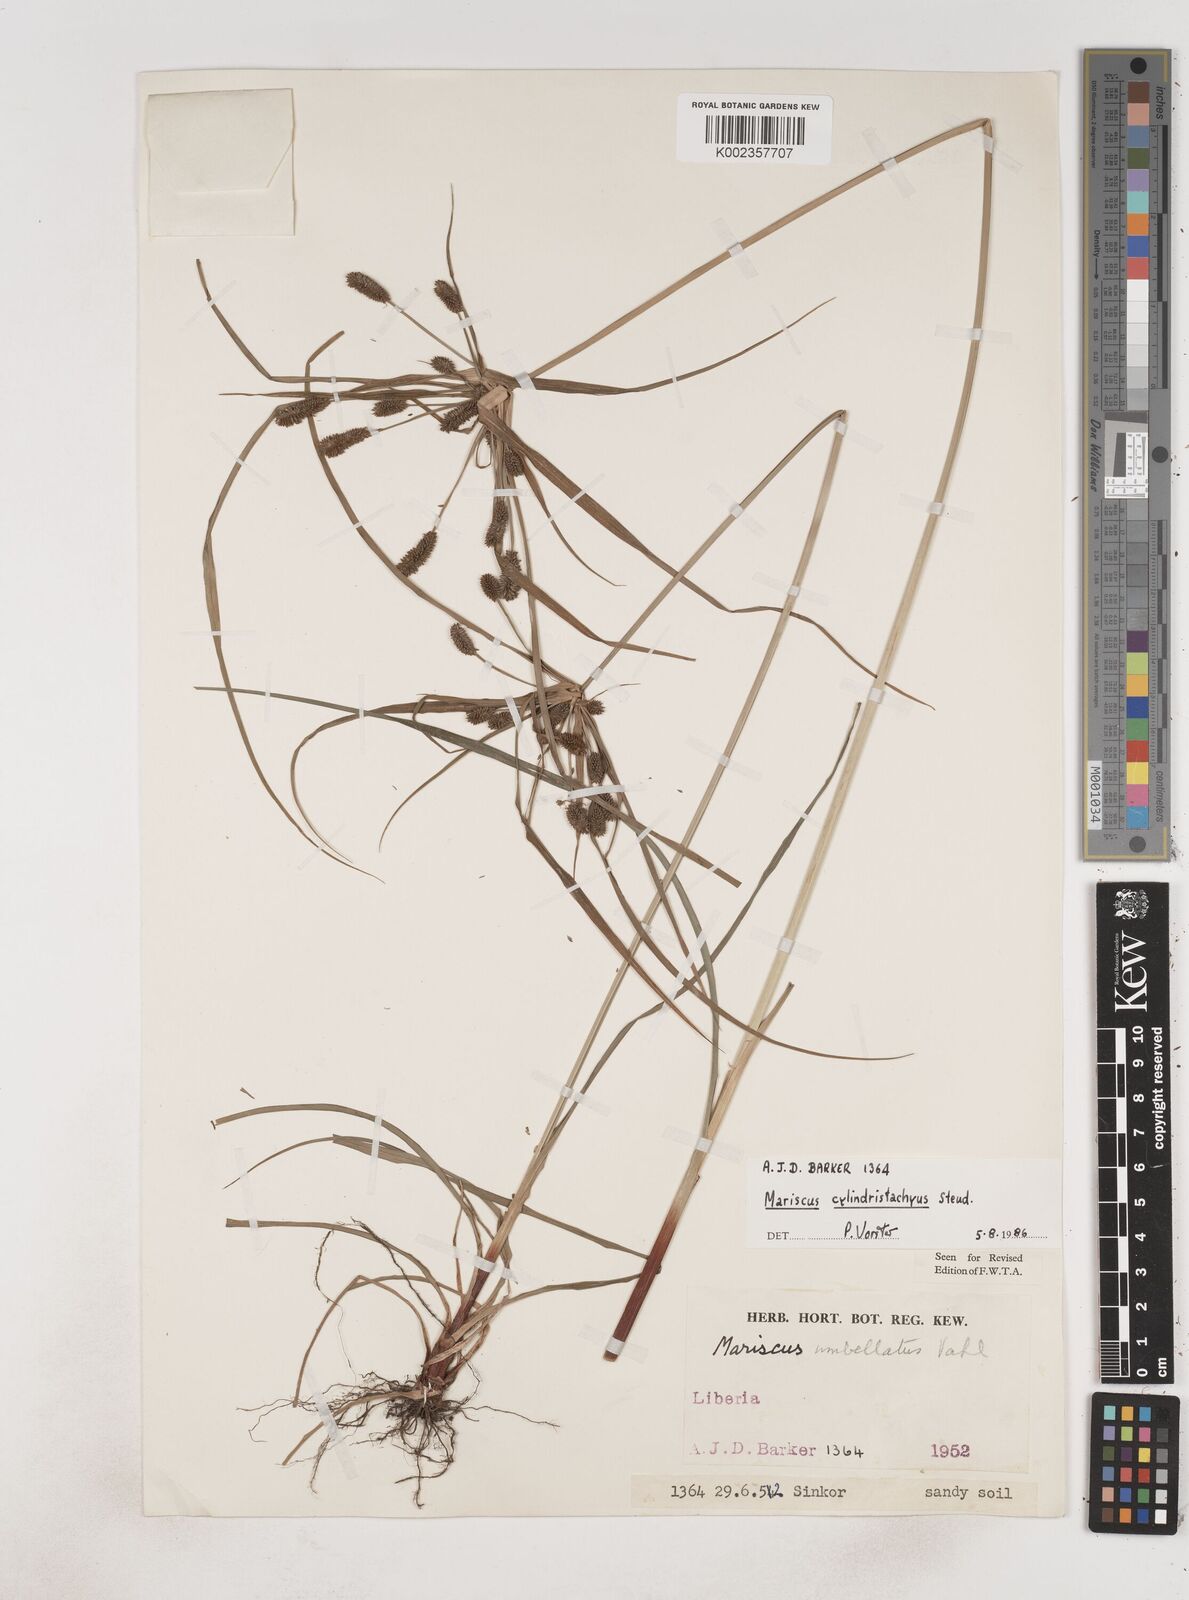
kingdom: Plantae
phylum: Tracheophyta
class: Liliopsida
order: Poales
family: Cyperaceae
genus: Cyperus
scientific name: Cyperus sublimis
